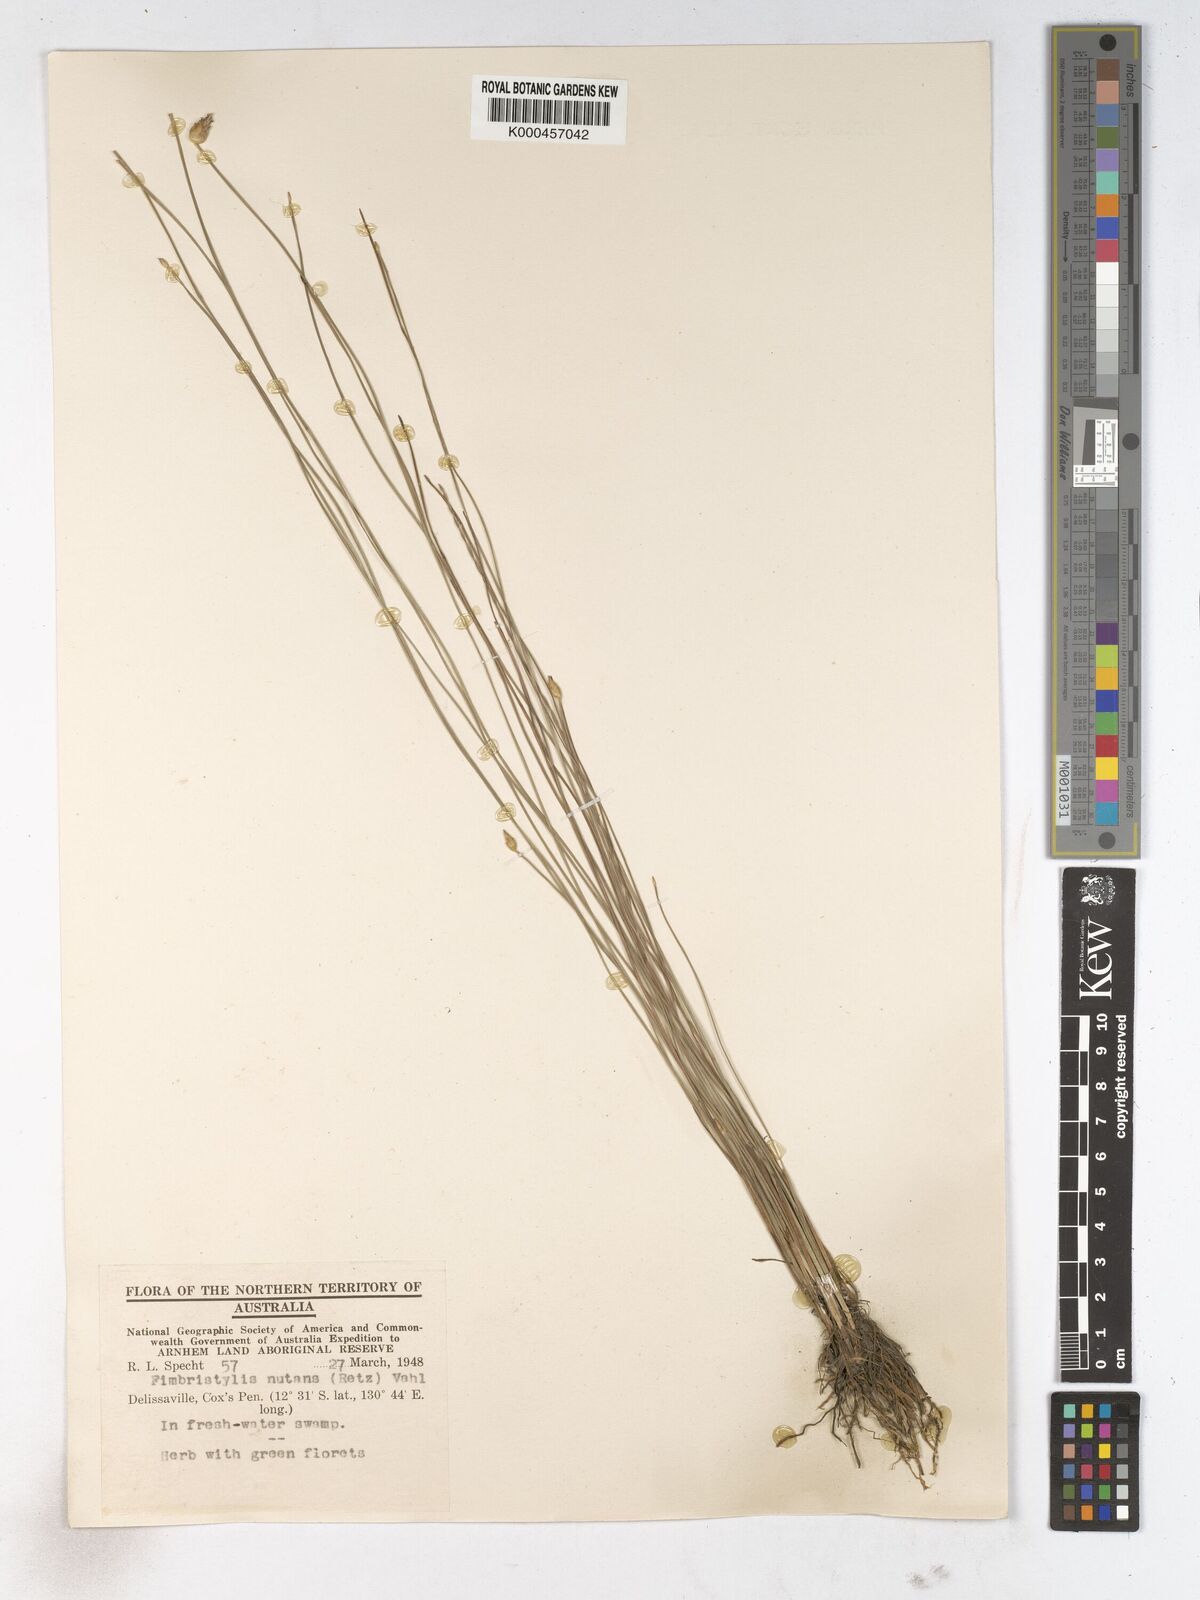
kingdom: Plantae
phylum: Tracheophyta
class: Liliopsida
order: Poales
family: Cyperaceae
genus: Fimbristylis
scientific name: Fimbristylis nutans
